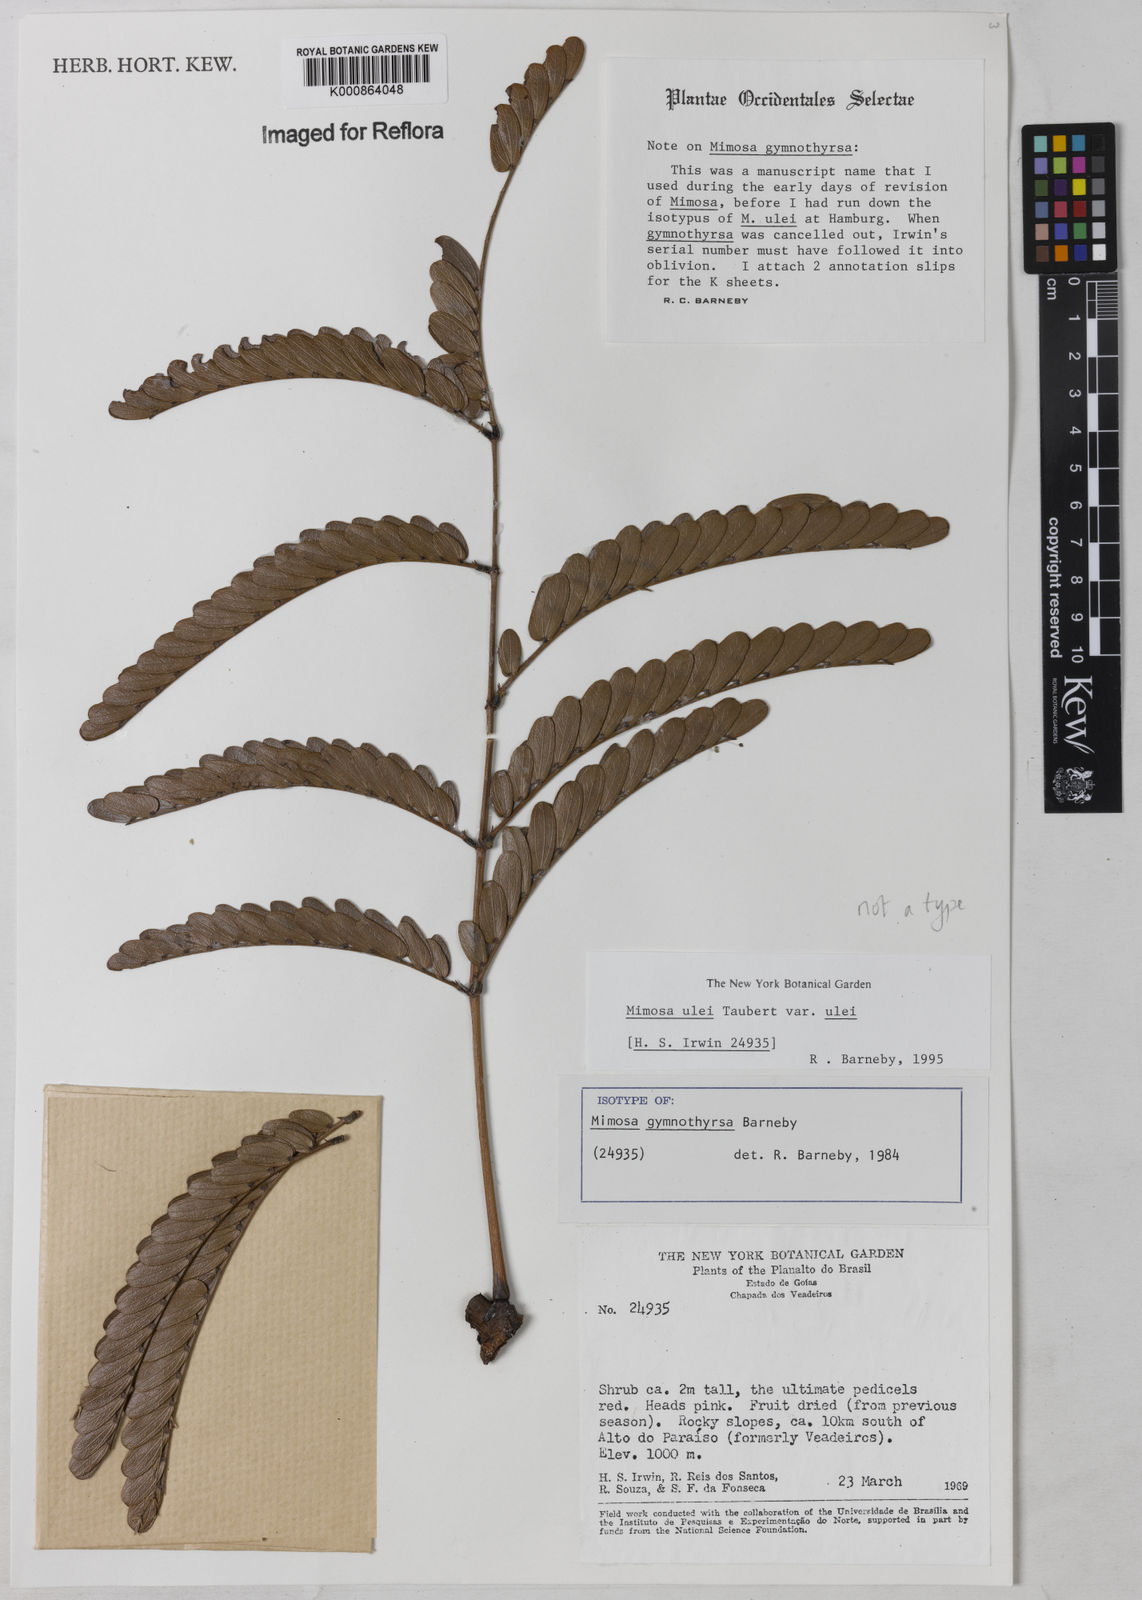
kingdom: Plantae
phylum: Tracheophyta
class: Magnoliopsida
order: Fabales
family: Fabaceae
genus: Mimosa
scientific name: Mimosa ulei
